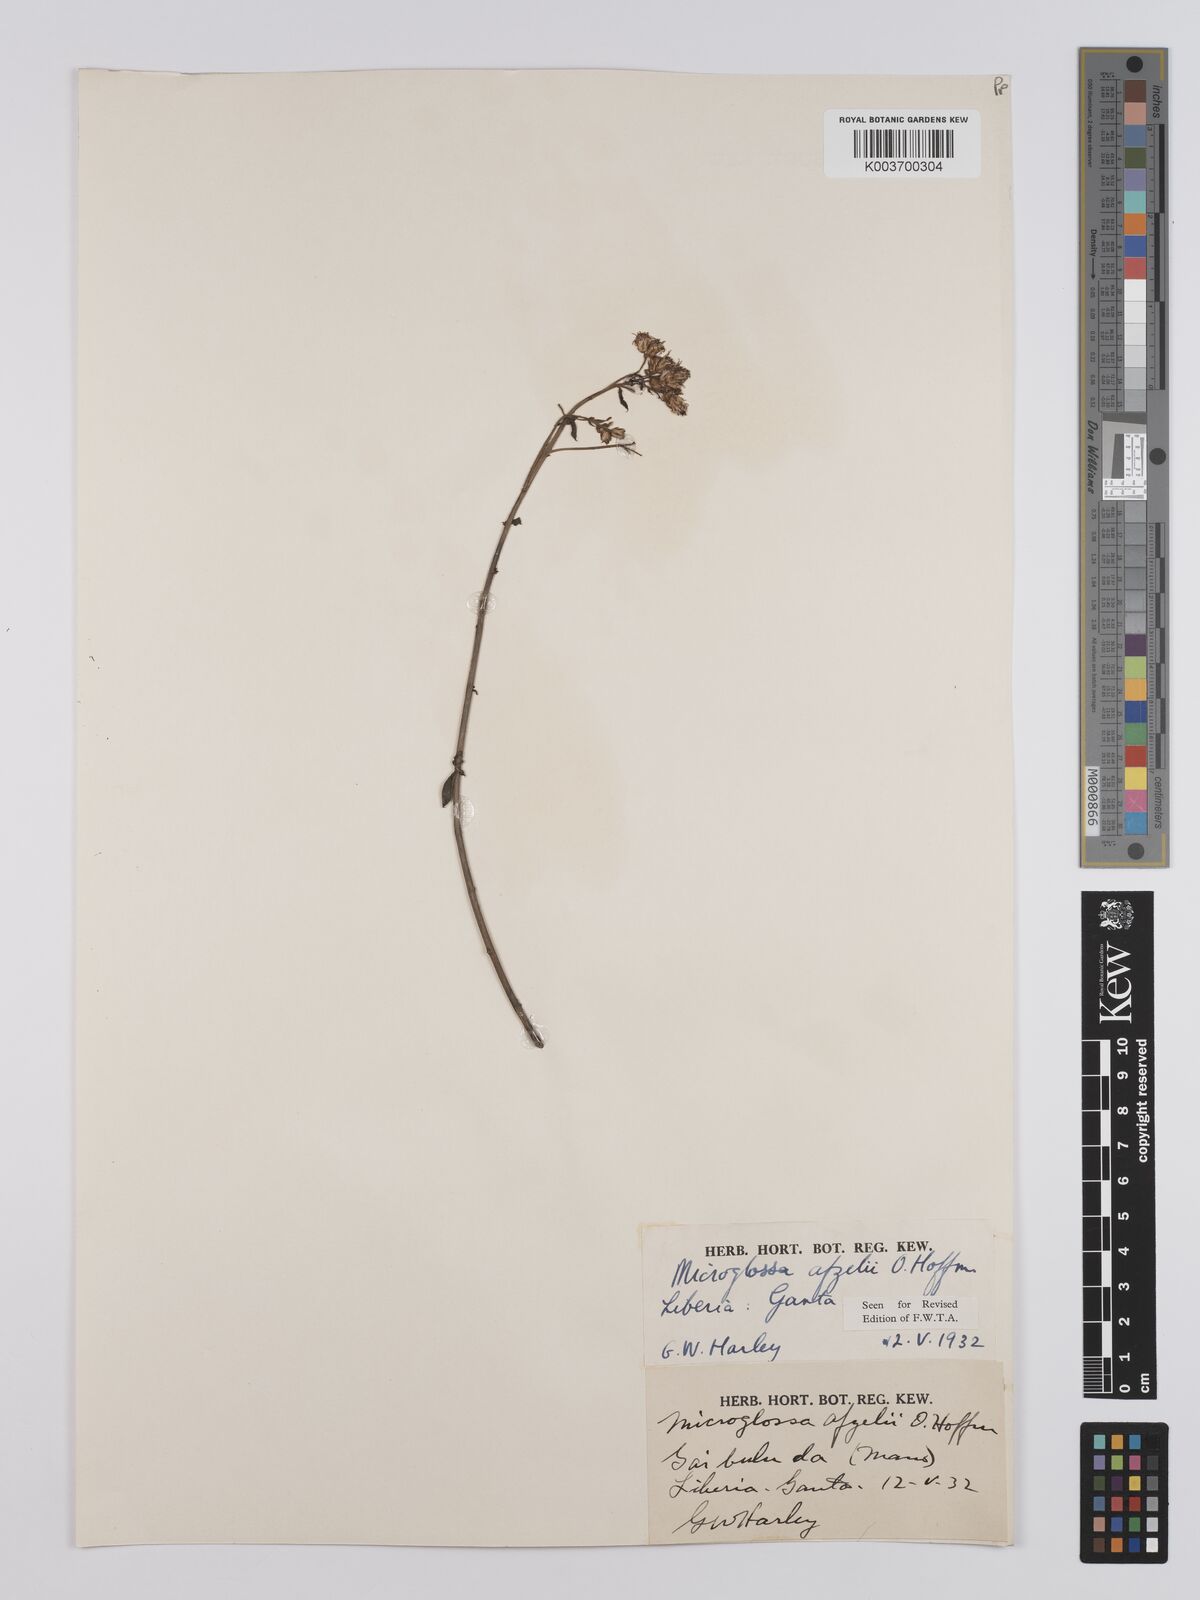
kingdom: Plantae
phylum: Tracheophyta
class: Magnoliopsida
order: Asterales
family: Asteraceae
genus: Microglossa
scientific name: Microglossa afzelii
